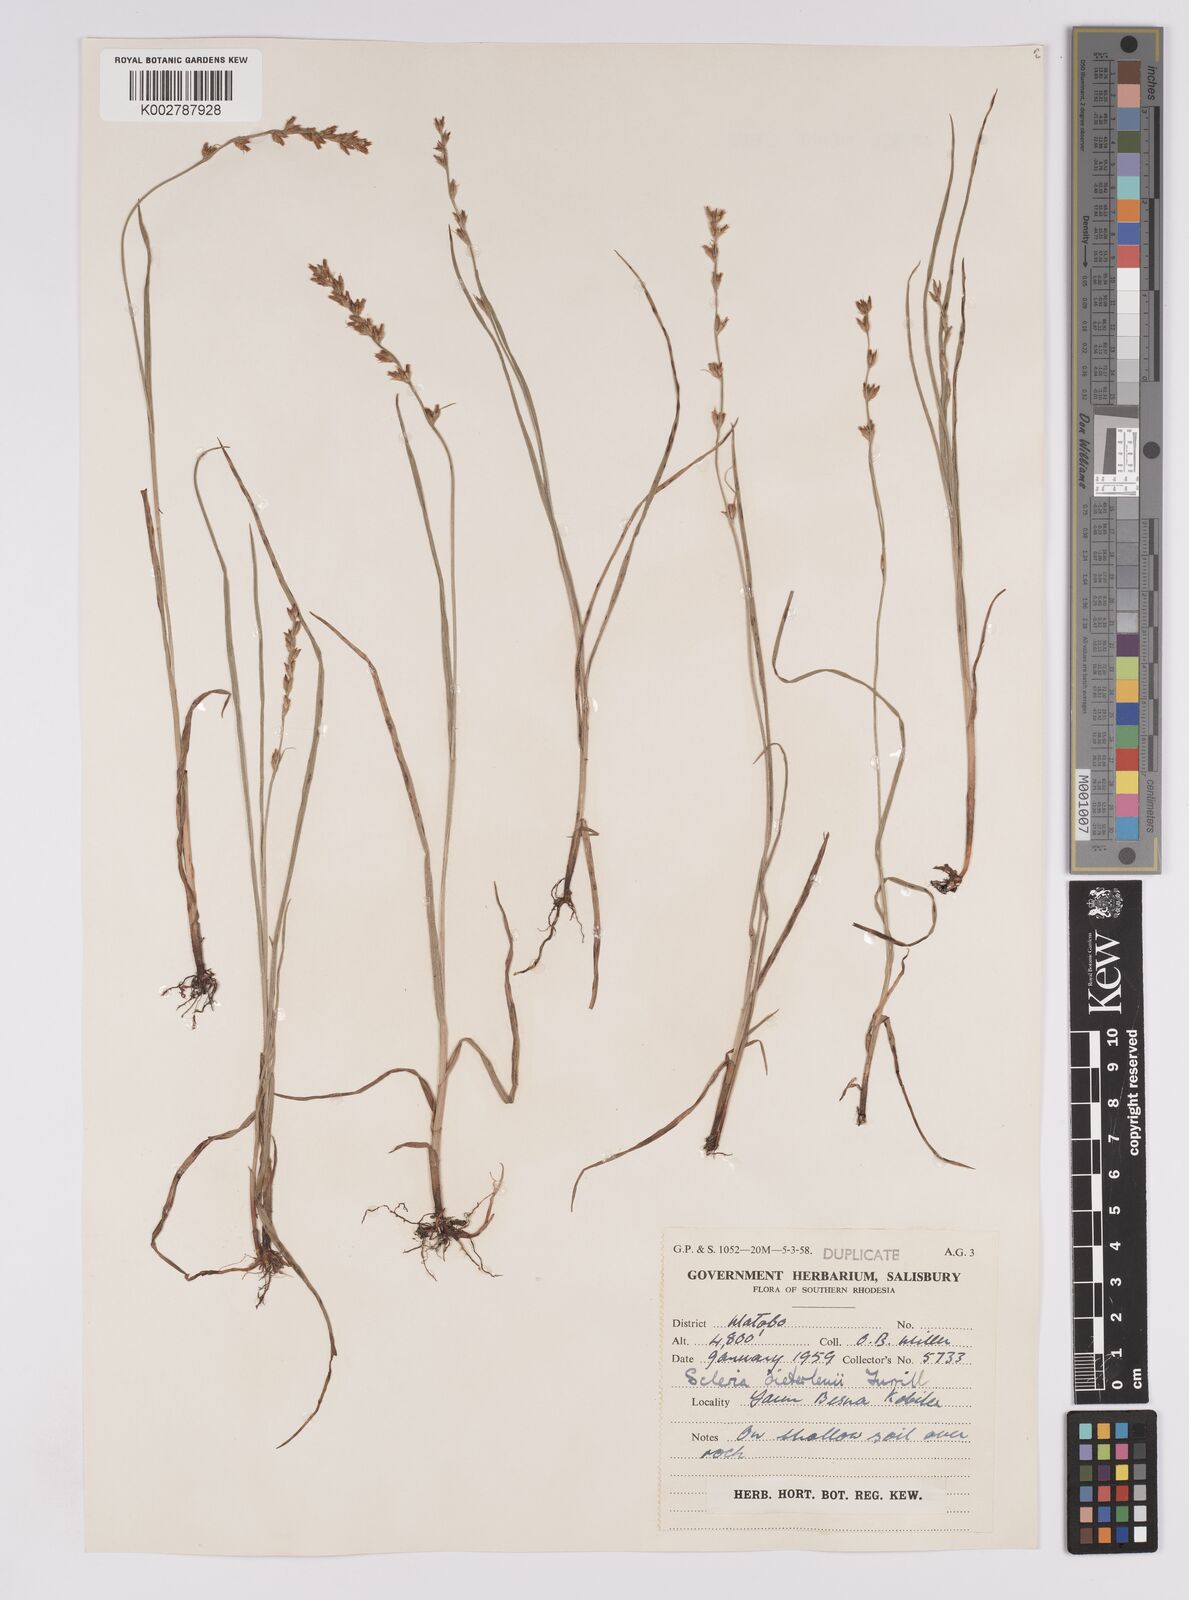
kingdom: Plantae
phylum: Tracheophyta
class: Liliopsida
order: Poales
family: Cyperaceae
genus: Scleria
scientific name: Scleria flexuosa
